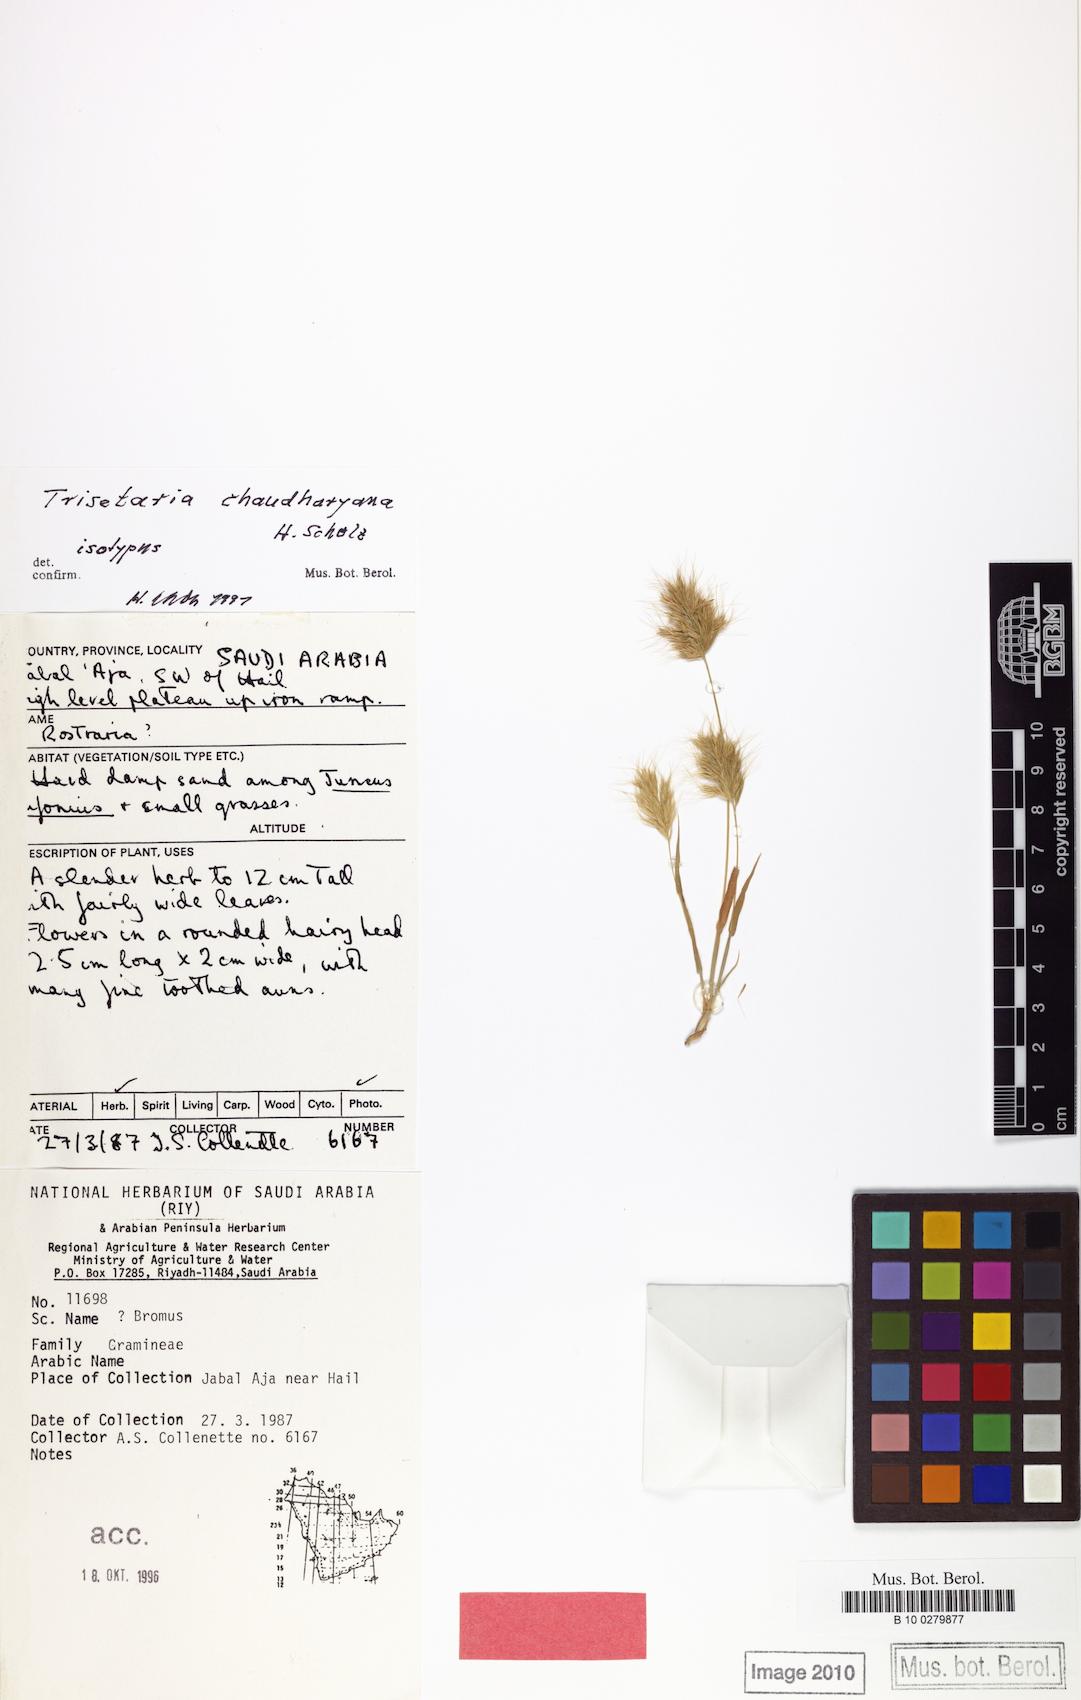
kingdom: Plantae
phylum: Tracheophyta
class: Liliopsida
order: Poales
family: Poaceae
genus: Trisetaria
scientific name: Trisetaria chaudharyana
